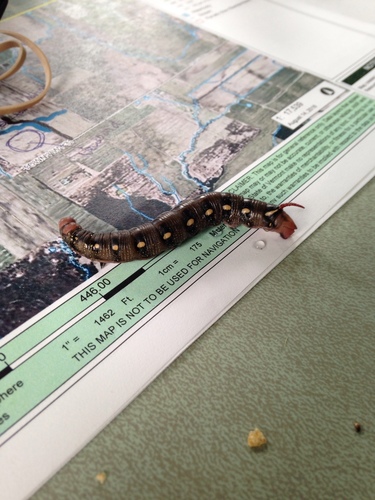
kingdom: Animalia
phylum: Arthropoda
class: Insecta
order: Lepidoptera
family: Sphingidae
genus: Hyles
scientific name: Hyles gallii
